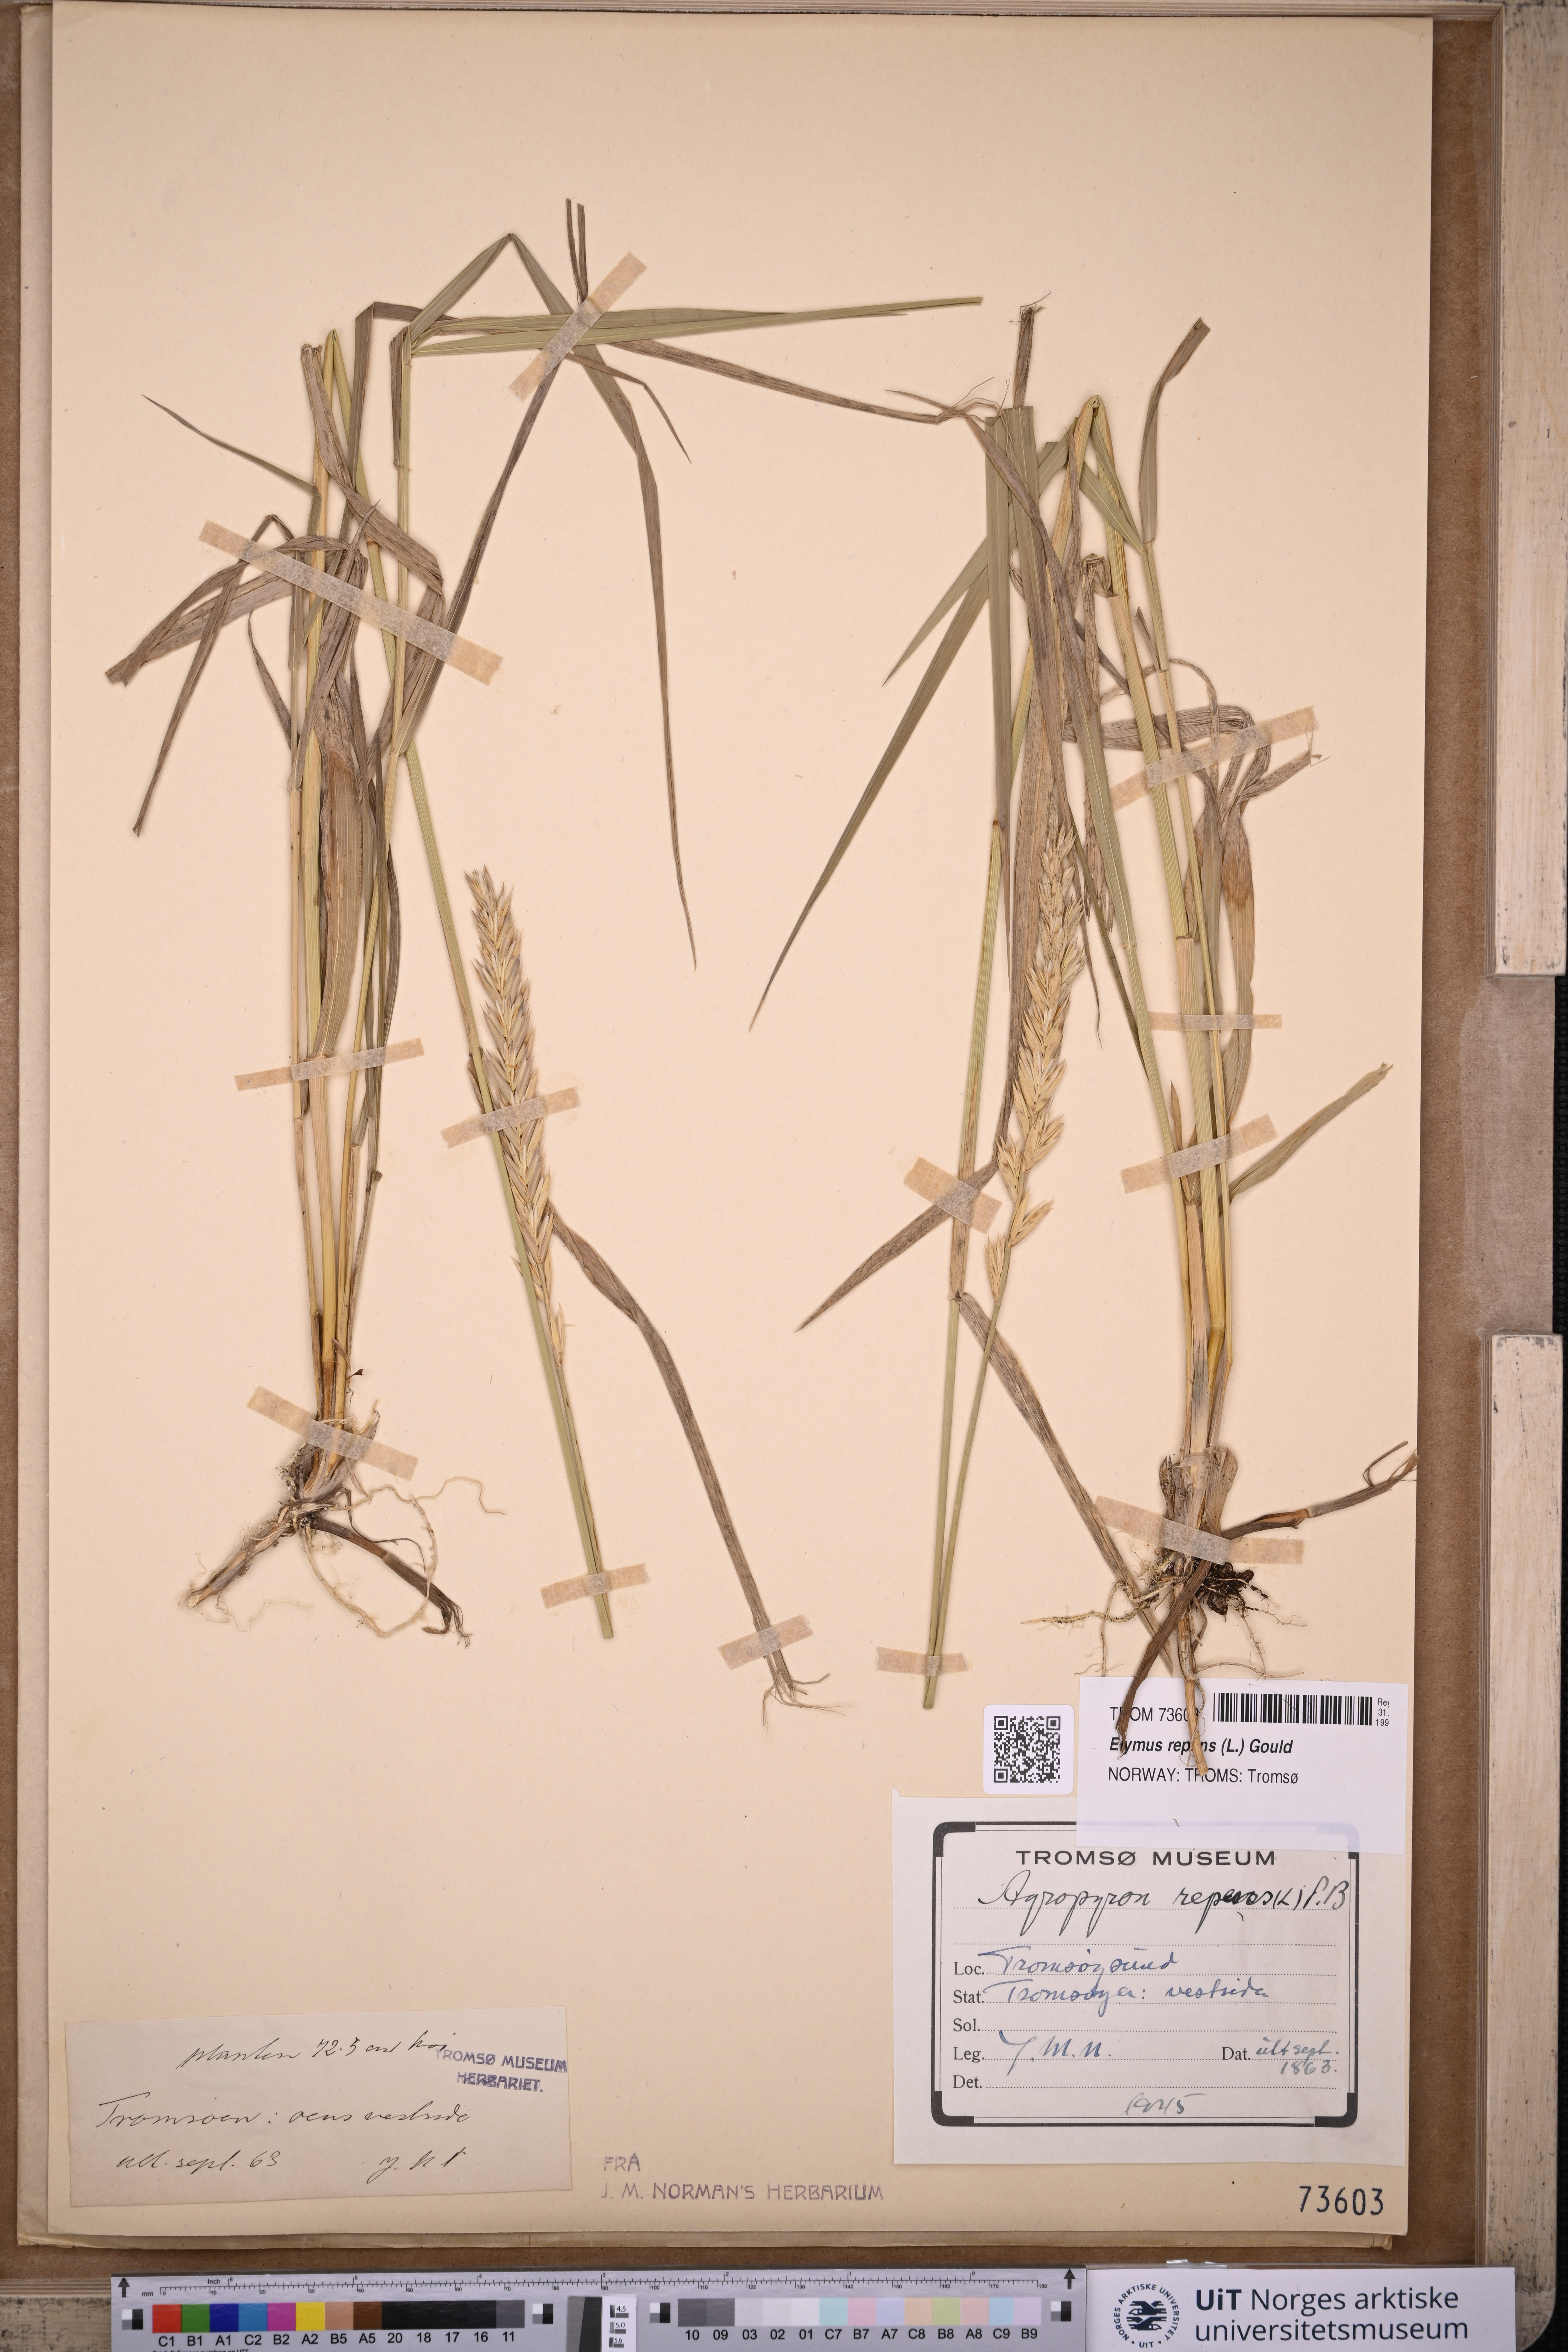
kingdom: Plantae
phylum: Tracheophyta
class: Liliopsida
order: Poales
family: Poaceae
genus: Elymus
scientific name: Elymus repens
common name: Quackgrass
